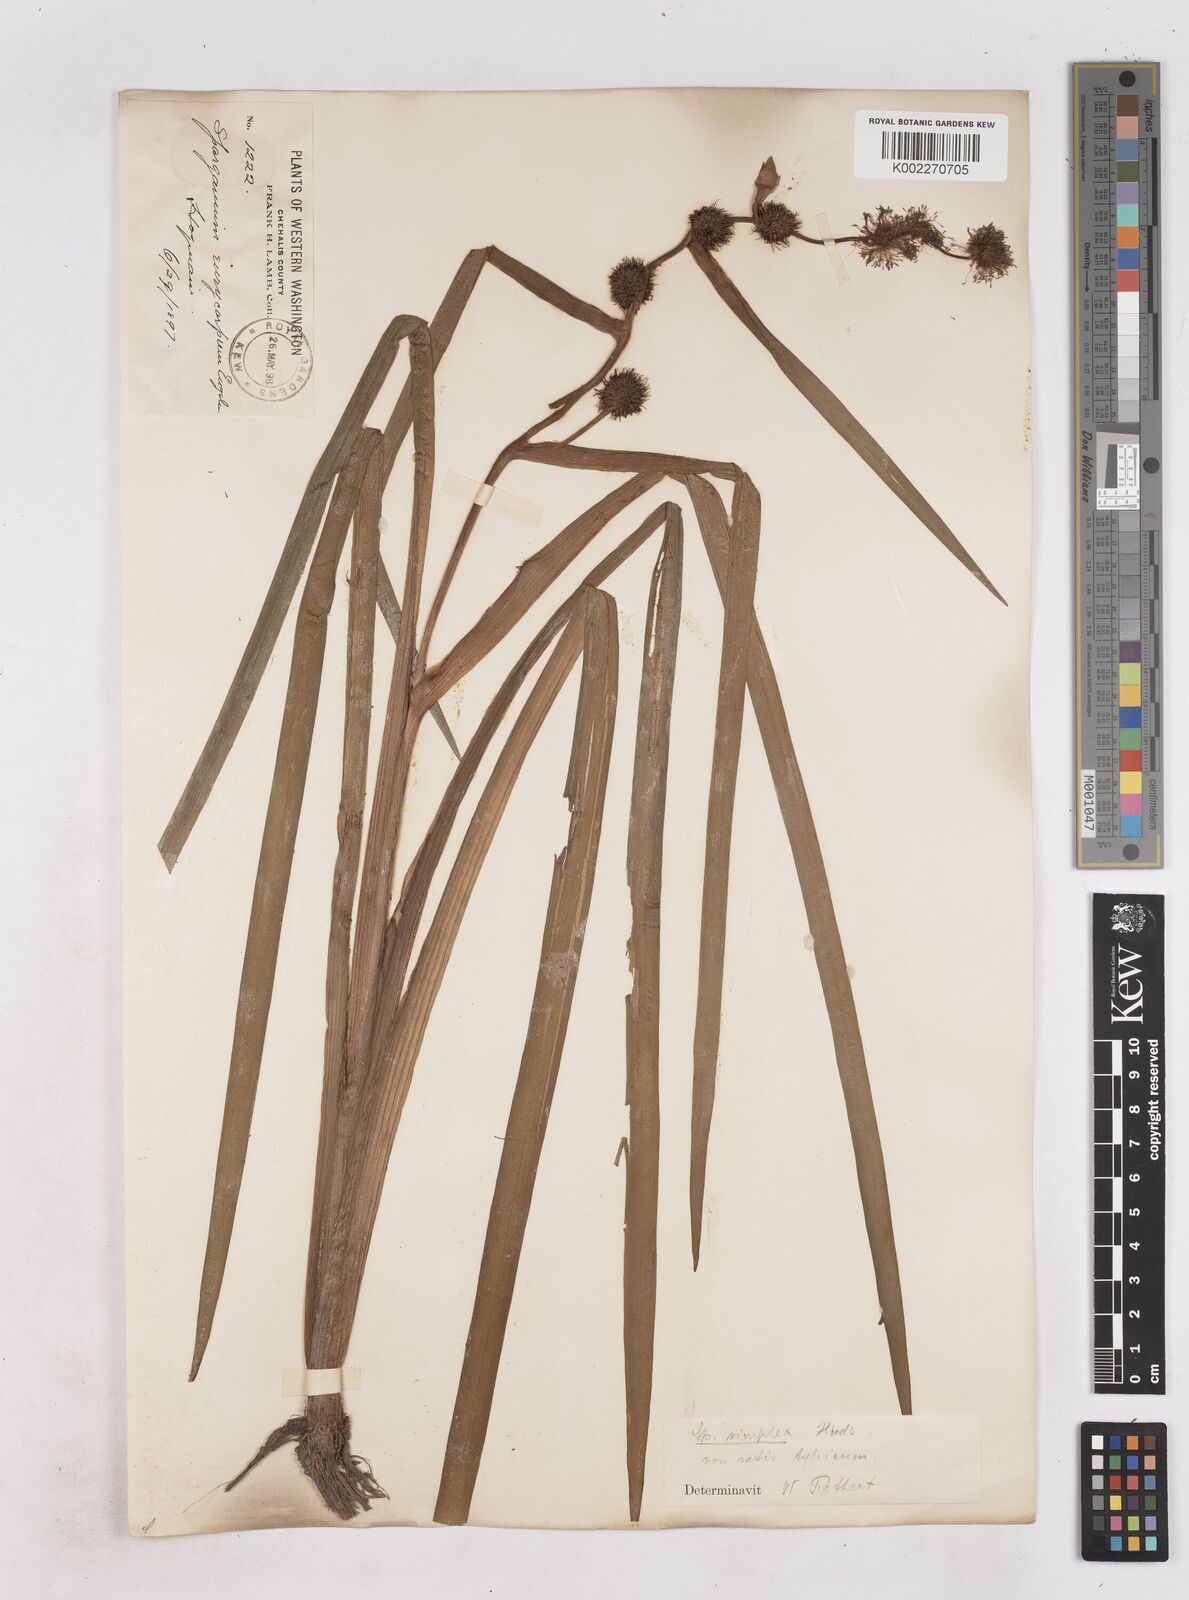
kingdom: Plantae
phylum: Tracheophyta
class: Liliopsida
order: Poales
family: Typhaceae
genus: Sparganium
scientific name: Sparganium emersum
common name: Unbranched bur-reed
